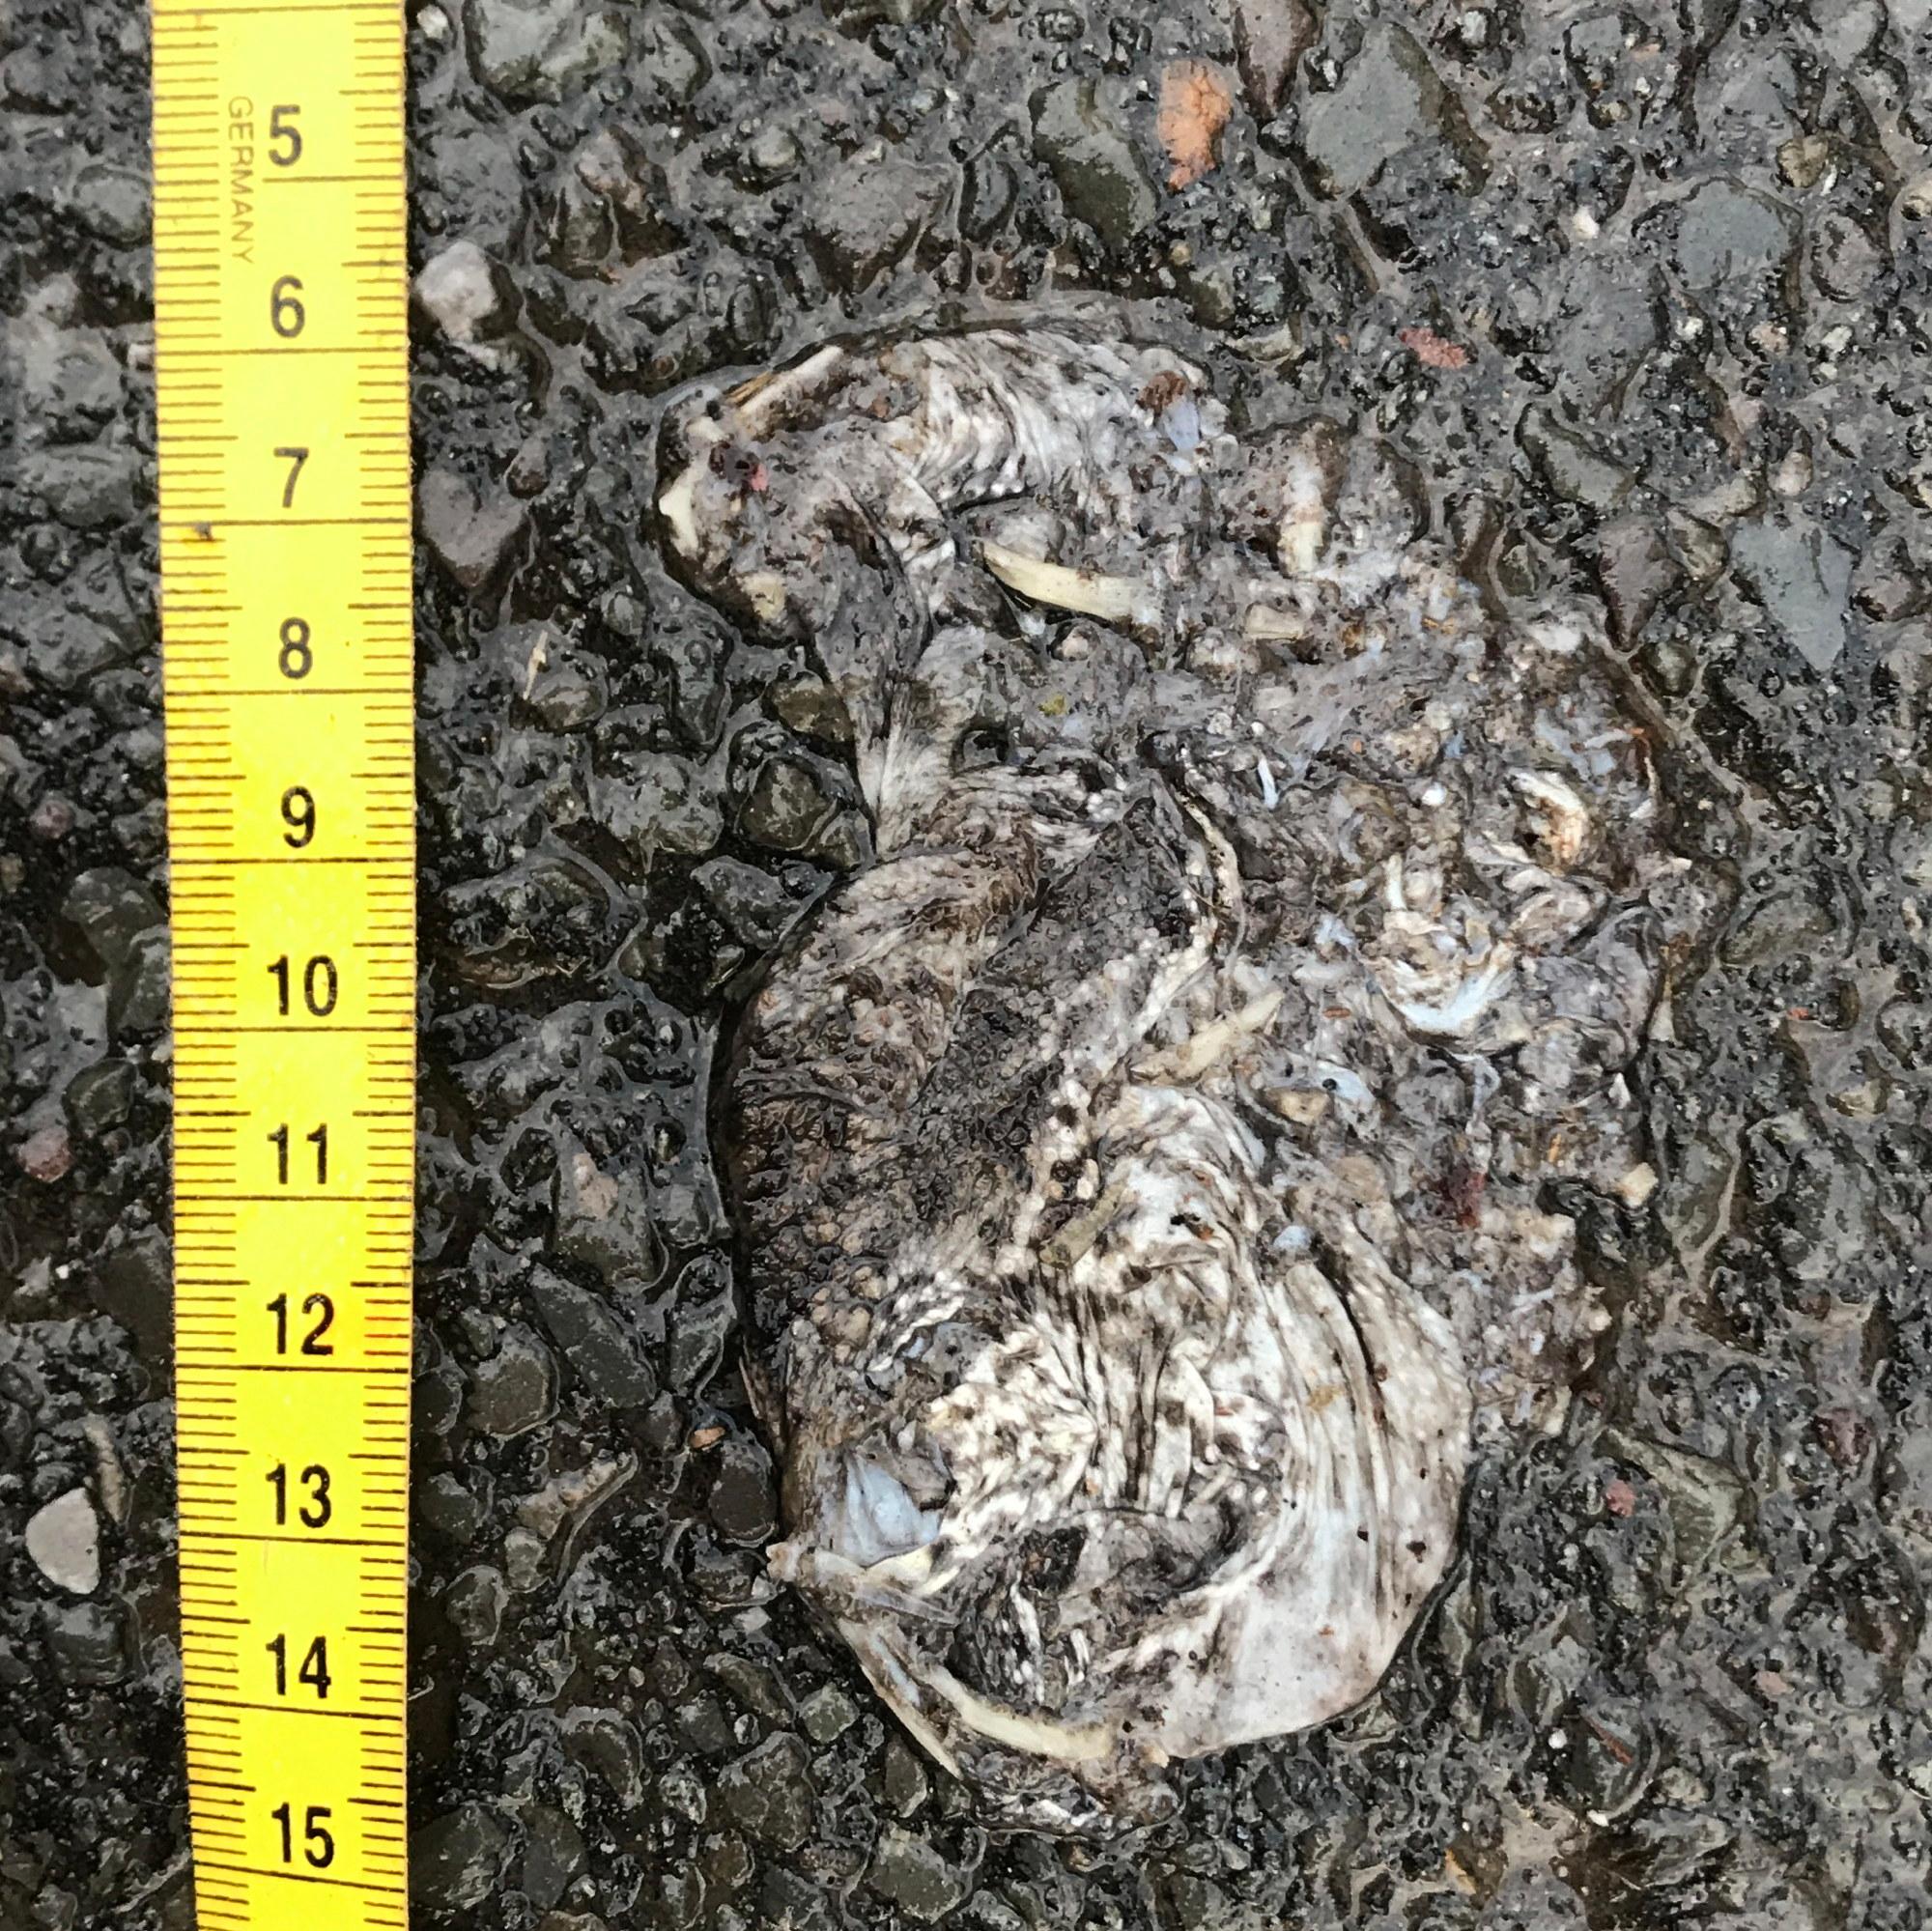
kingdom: Animalia
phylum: Chordata
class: Amphibia
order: Anura
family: Bufonidae
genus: Bufo
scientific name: Bufo bufo
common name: Common toad
